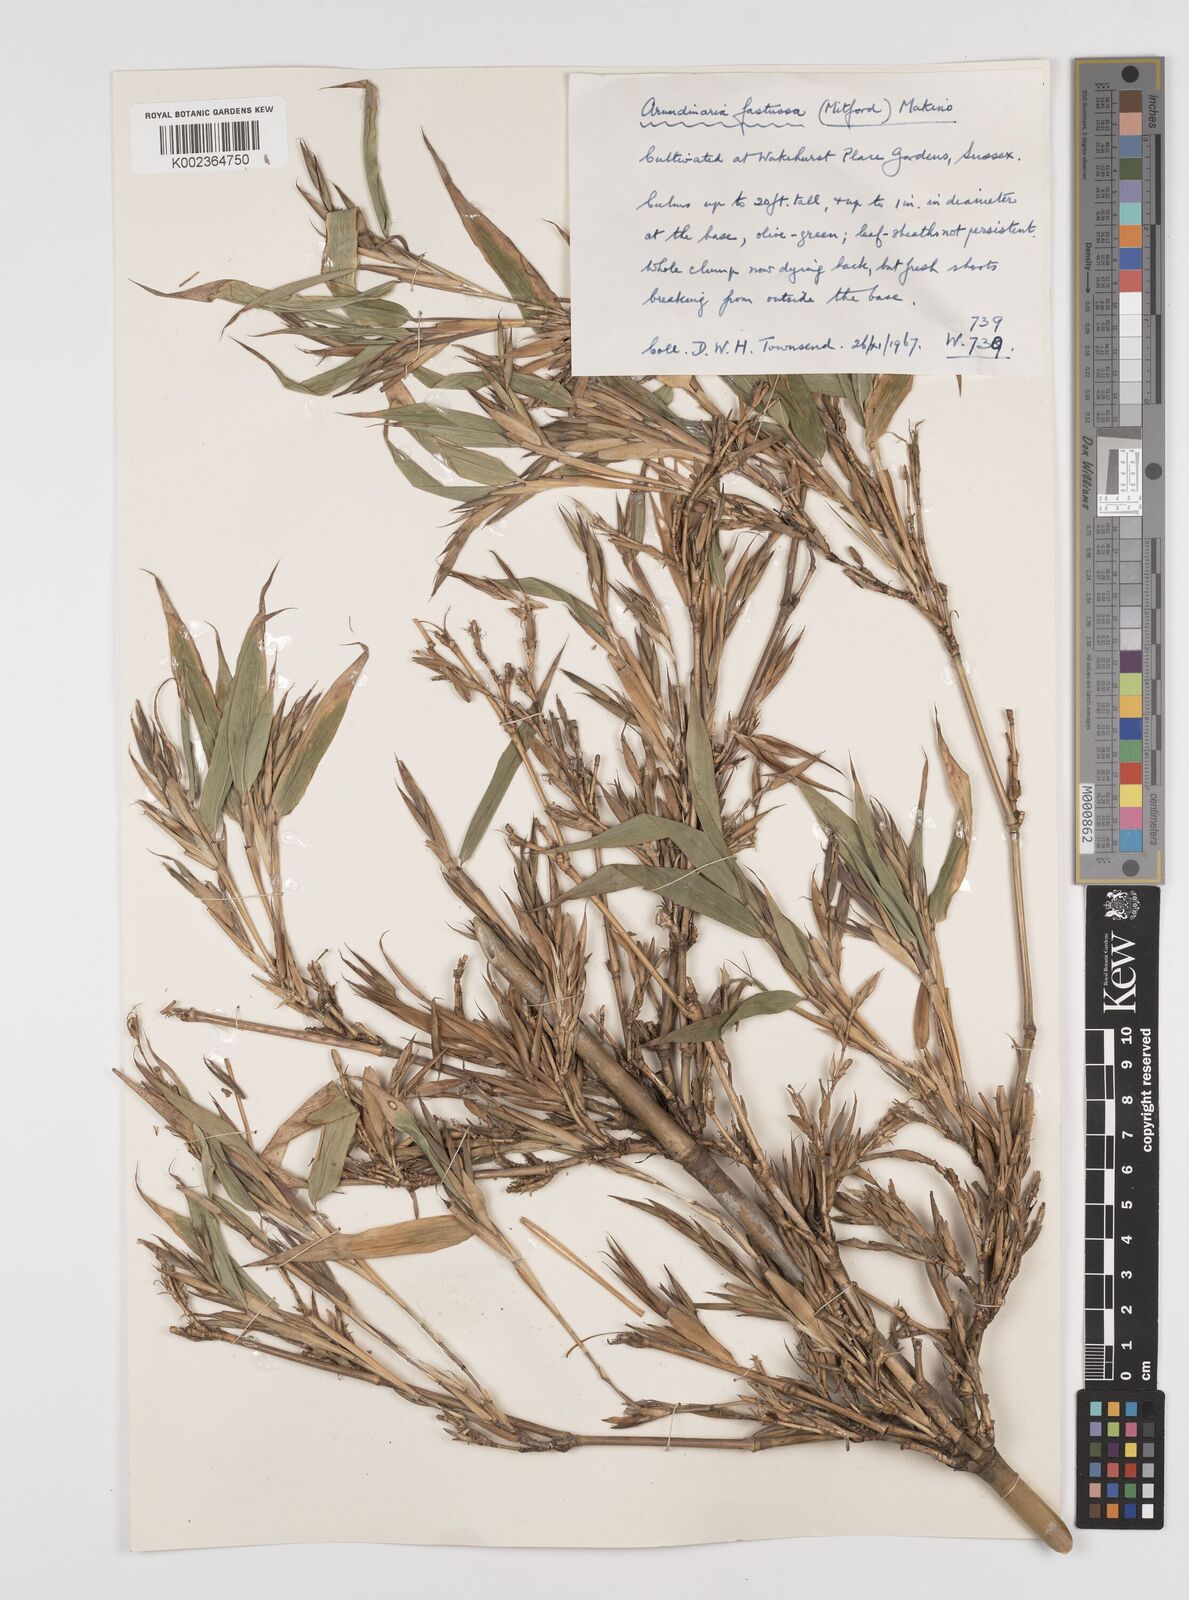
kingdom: Plantae
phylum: Tracheophyta
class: Liliopsida
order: Poales
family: Poaceae
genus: Semiarundinaria
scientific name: Semiarundinaria fastuosa
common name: Narihira bamboo
